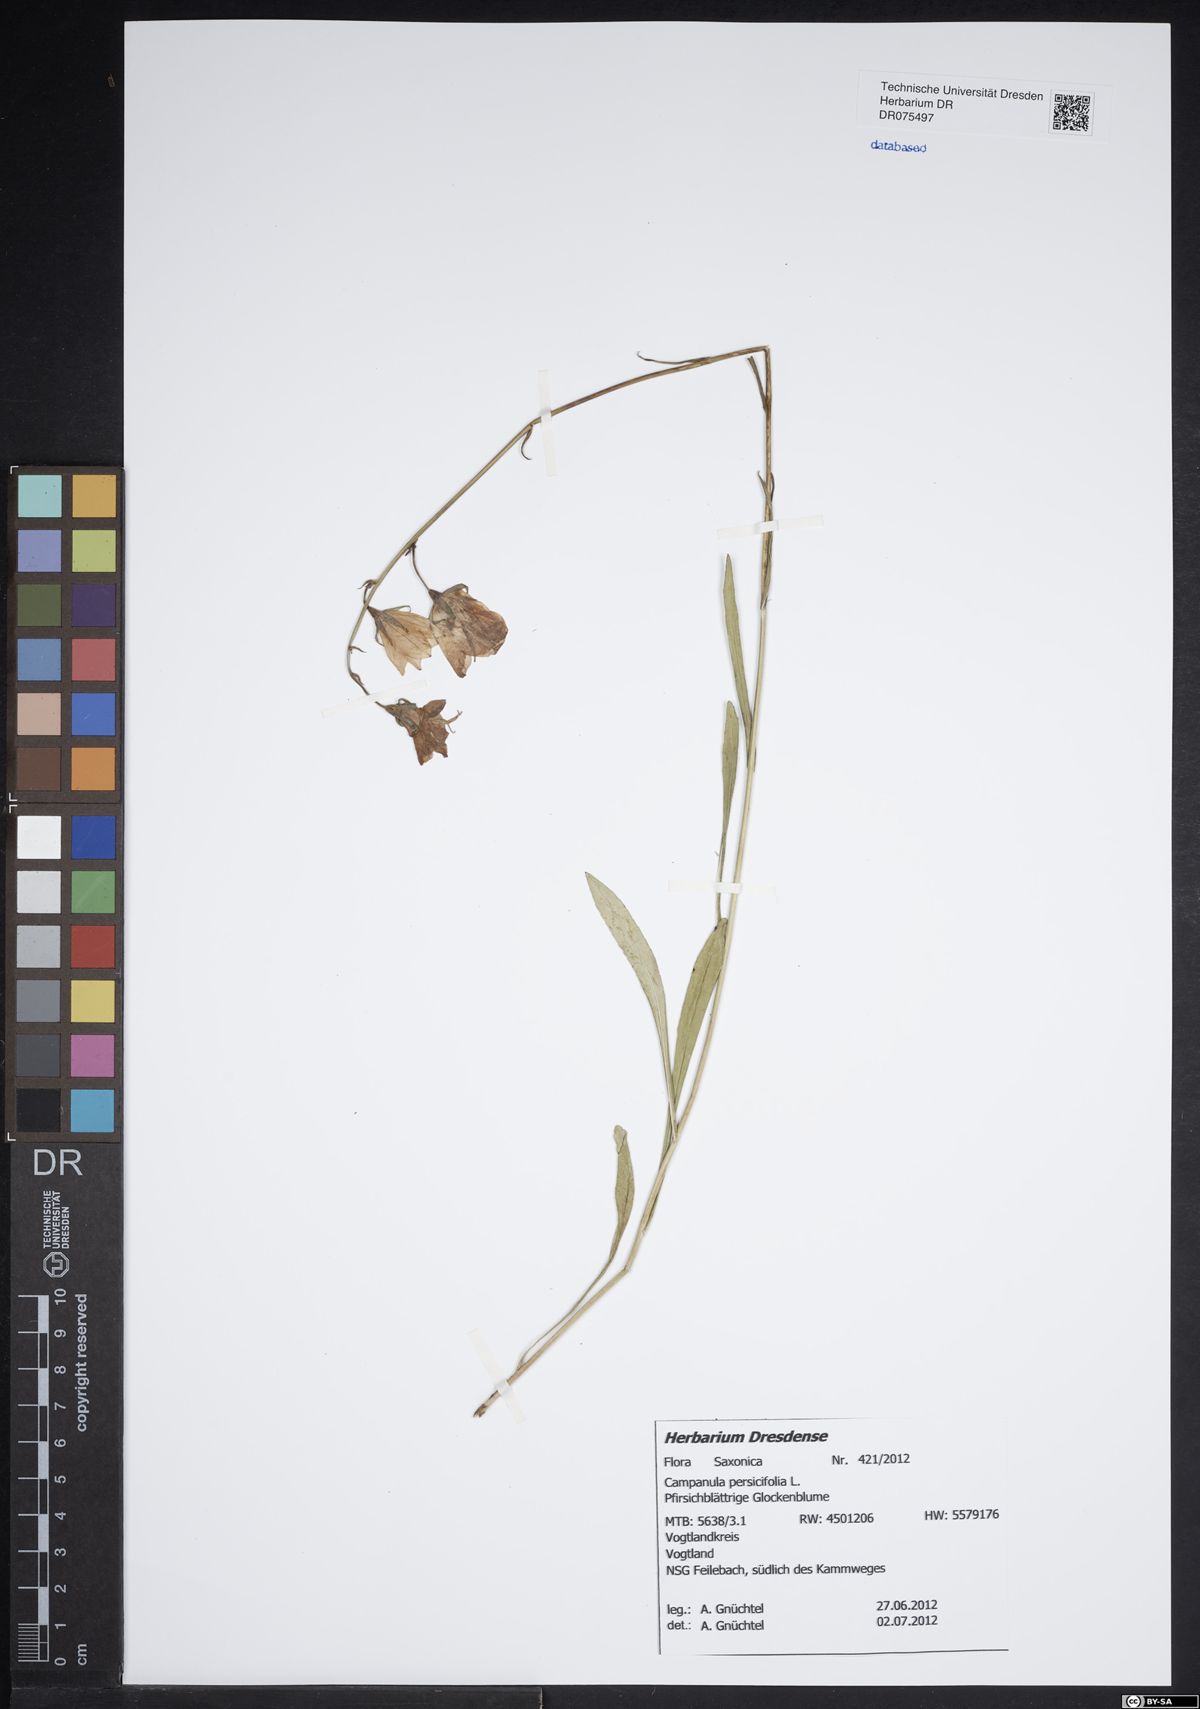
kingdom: Plantae
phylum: Tracheophyta
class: Magnoliopsida
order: Asterales
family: Campanulaceae
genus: Campanula
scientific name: Campanula persicifolia
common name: Peach-leaved bellflower
